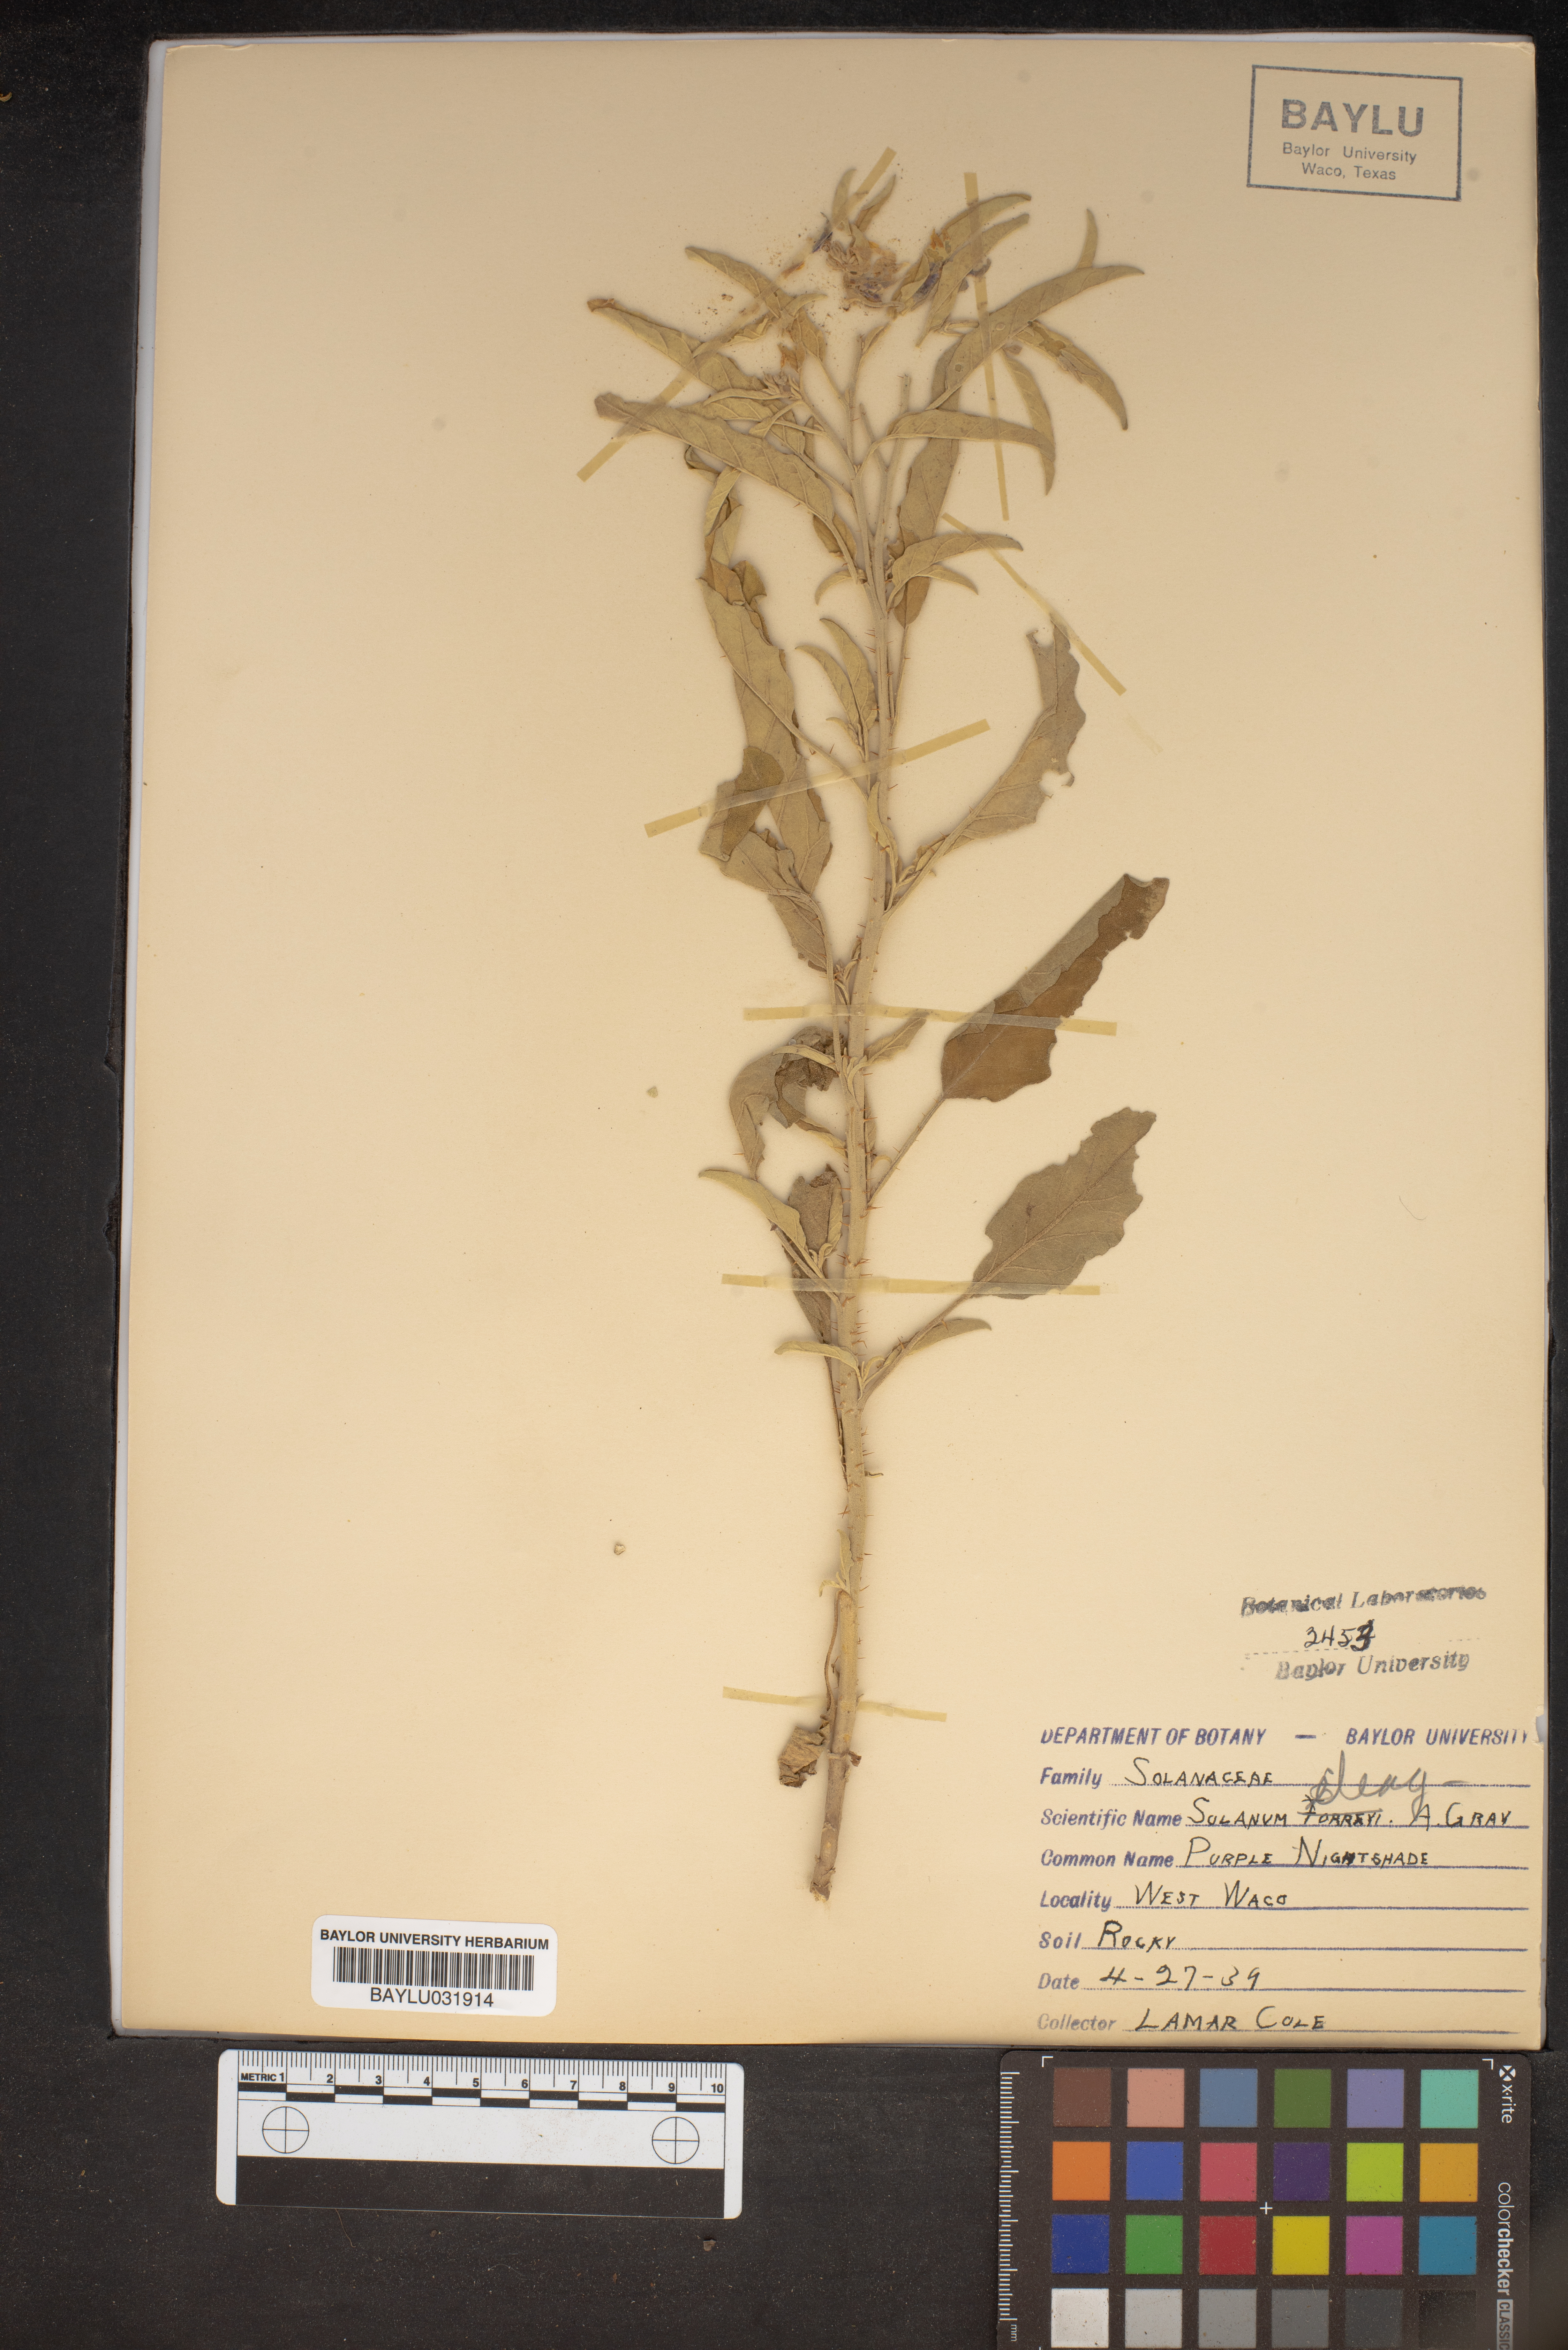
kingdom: Plantae
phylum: Tracheophyta
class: Magnoliopsida
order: Solanales
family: Solanaceae
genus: Solanum
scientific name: Solanum umbelliferum
